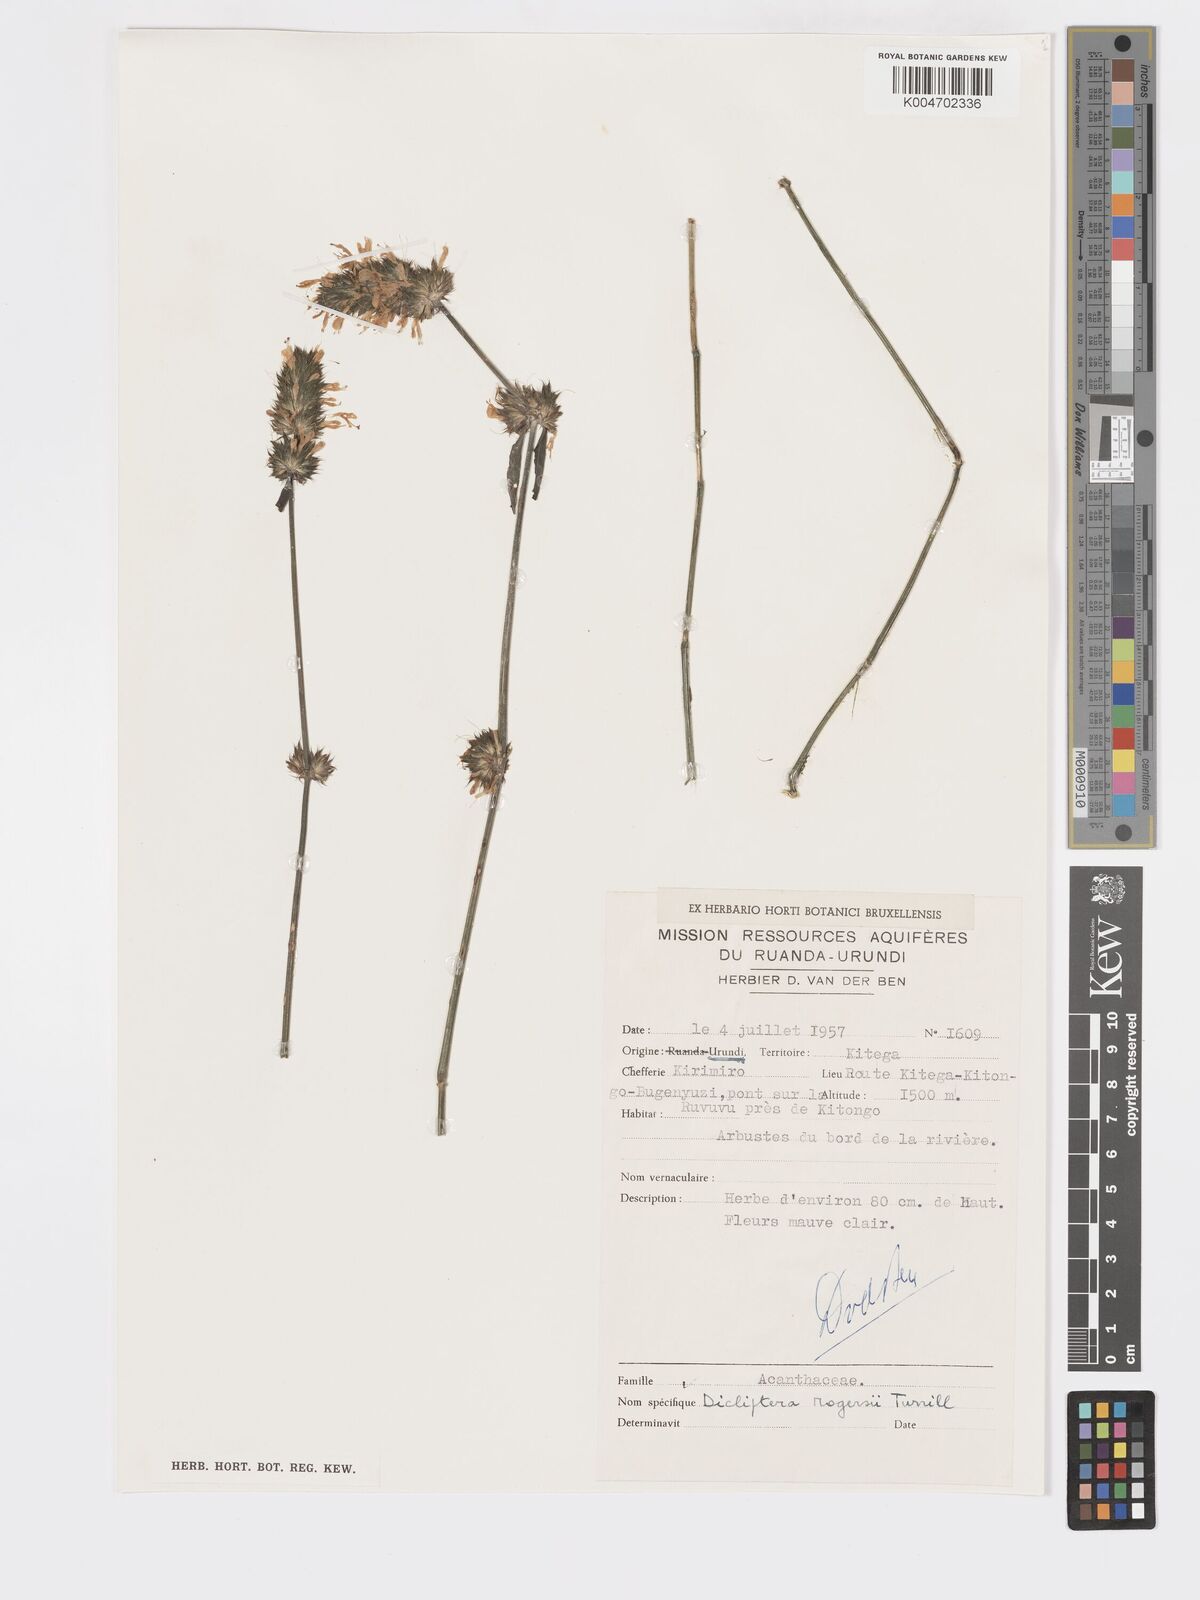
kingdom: Plantae
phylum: Tracheophyta
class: Magnoliopsida
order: Lamiales
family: Acanthaceae
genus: Dicliptera
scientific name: Dicliptera carvalhoi
